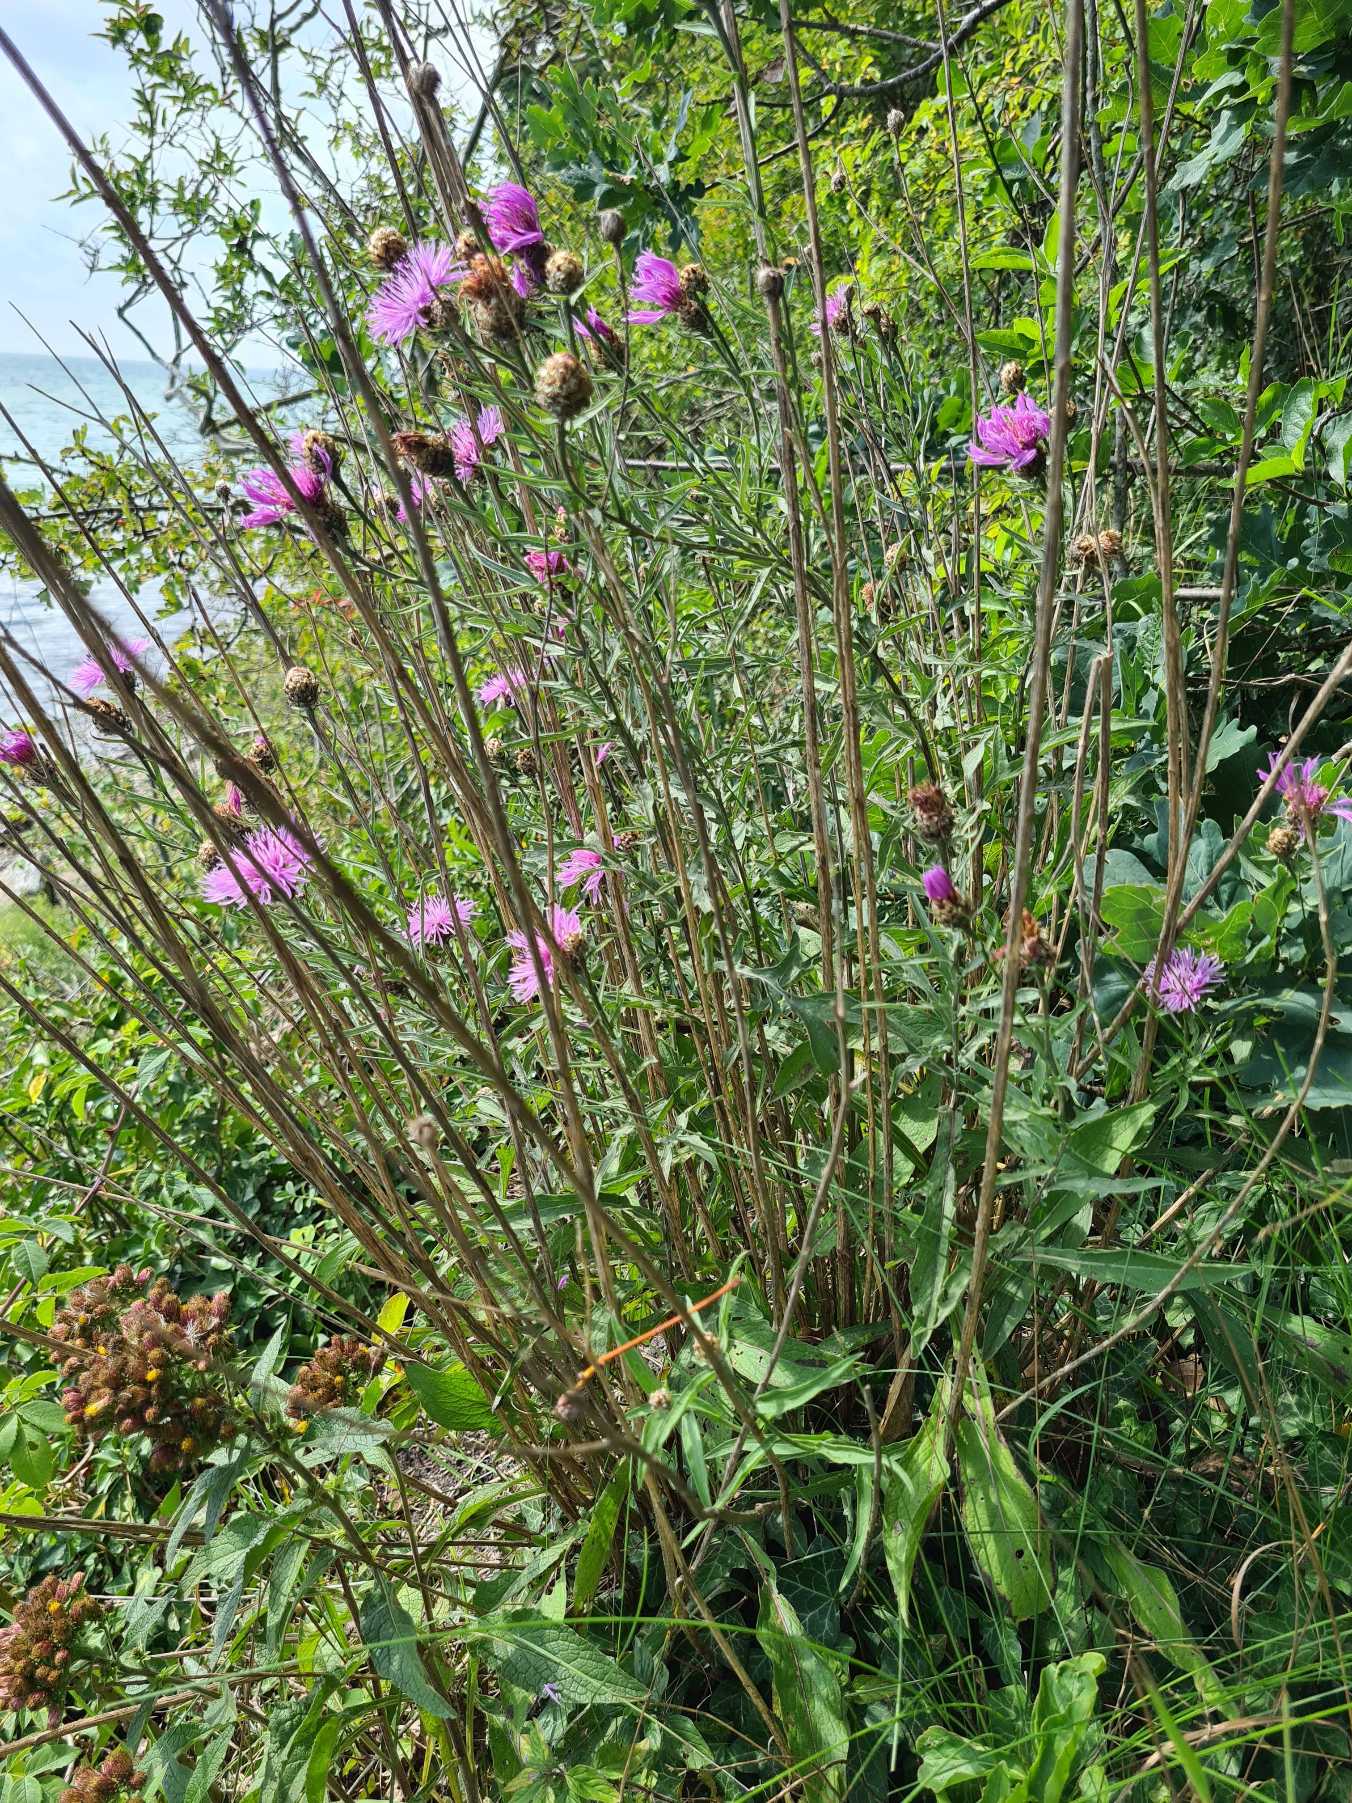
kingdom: Plantae
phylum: Tracheophyta
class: Magnoliopsida
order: Asterales
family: Asteraceae
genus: Centaurea
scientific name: Centaurea jacea
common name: Almindelig knopurt
